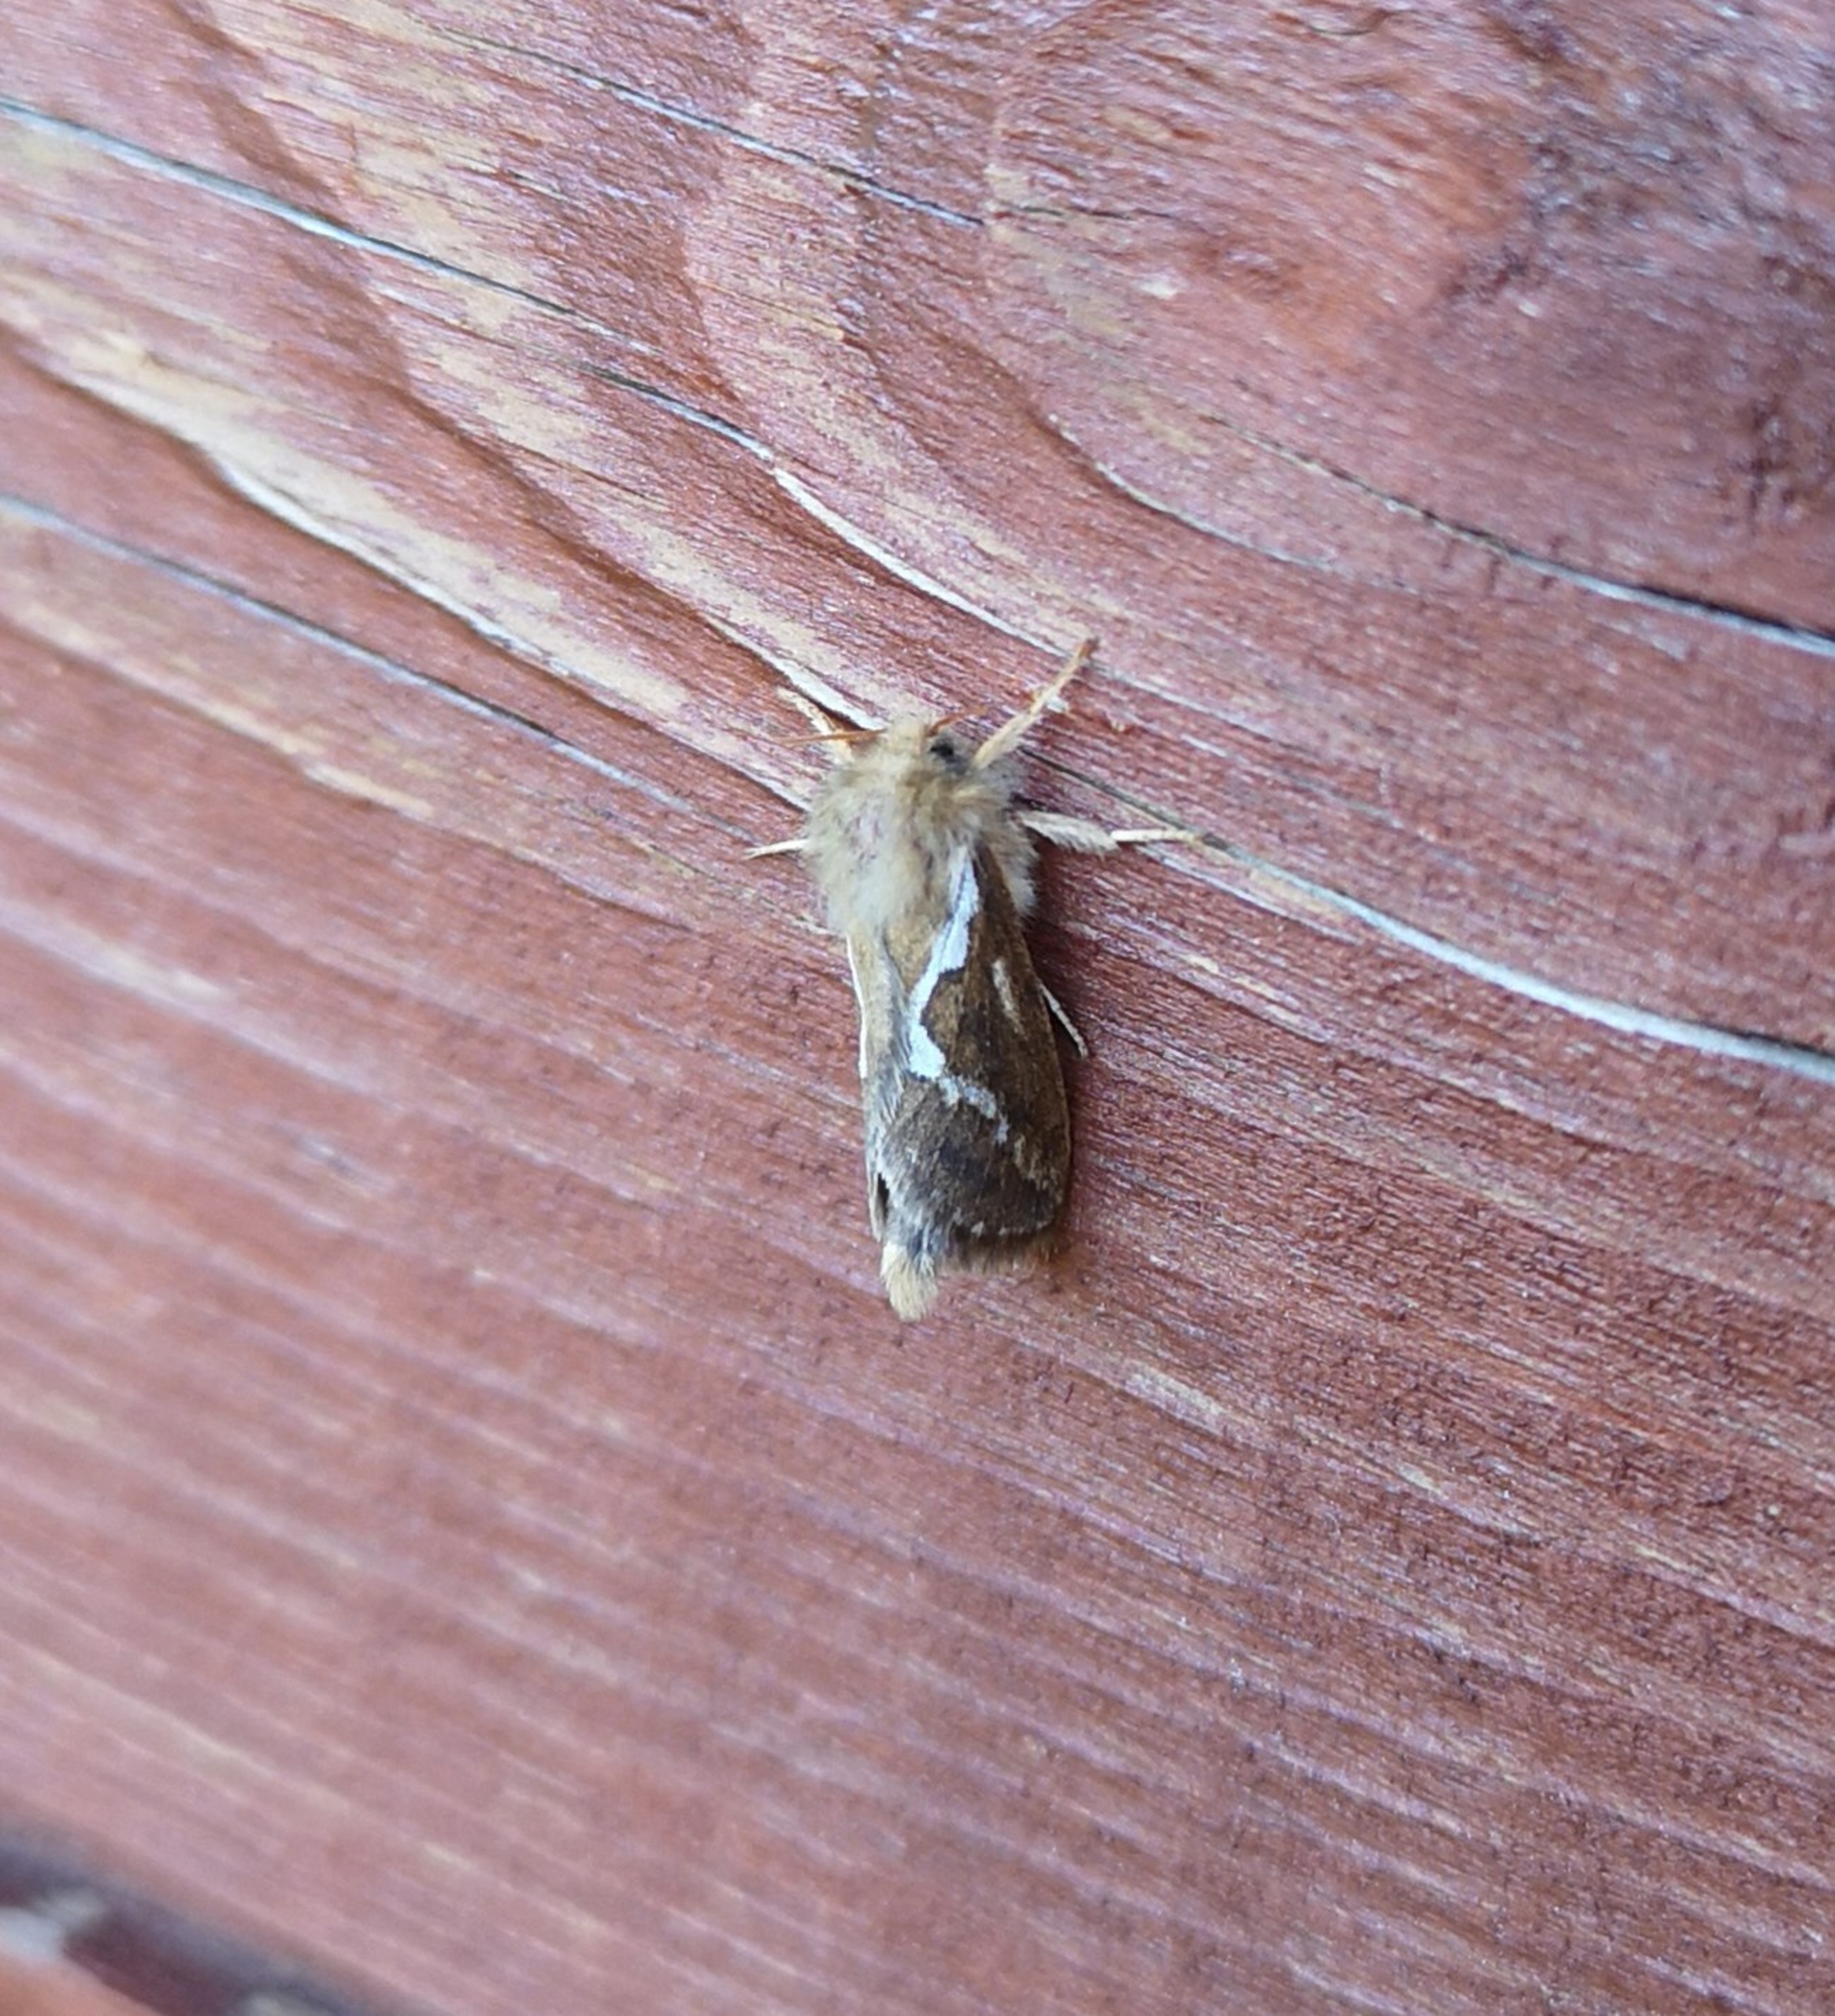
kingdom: Animalia
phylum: Arthropoda
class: Insecta
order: Lepidoptera
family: Hepialidae
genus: Triodia
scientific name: Triodia sylvina
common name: Skræpperodæder
